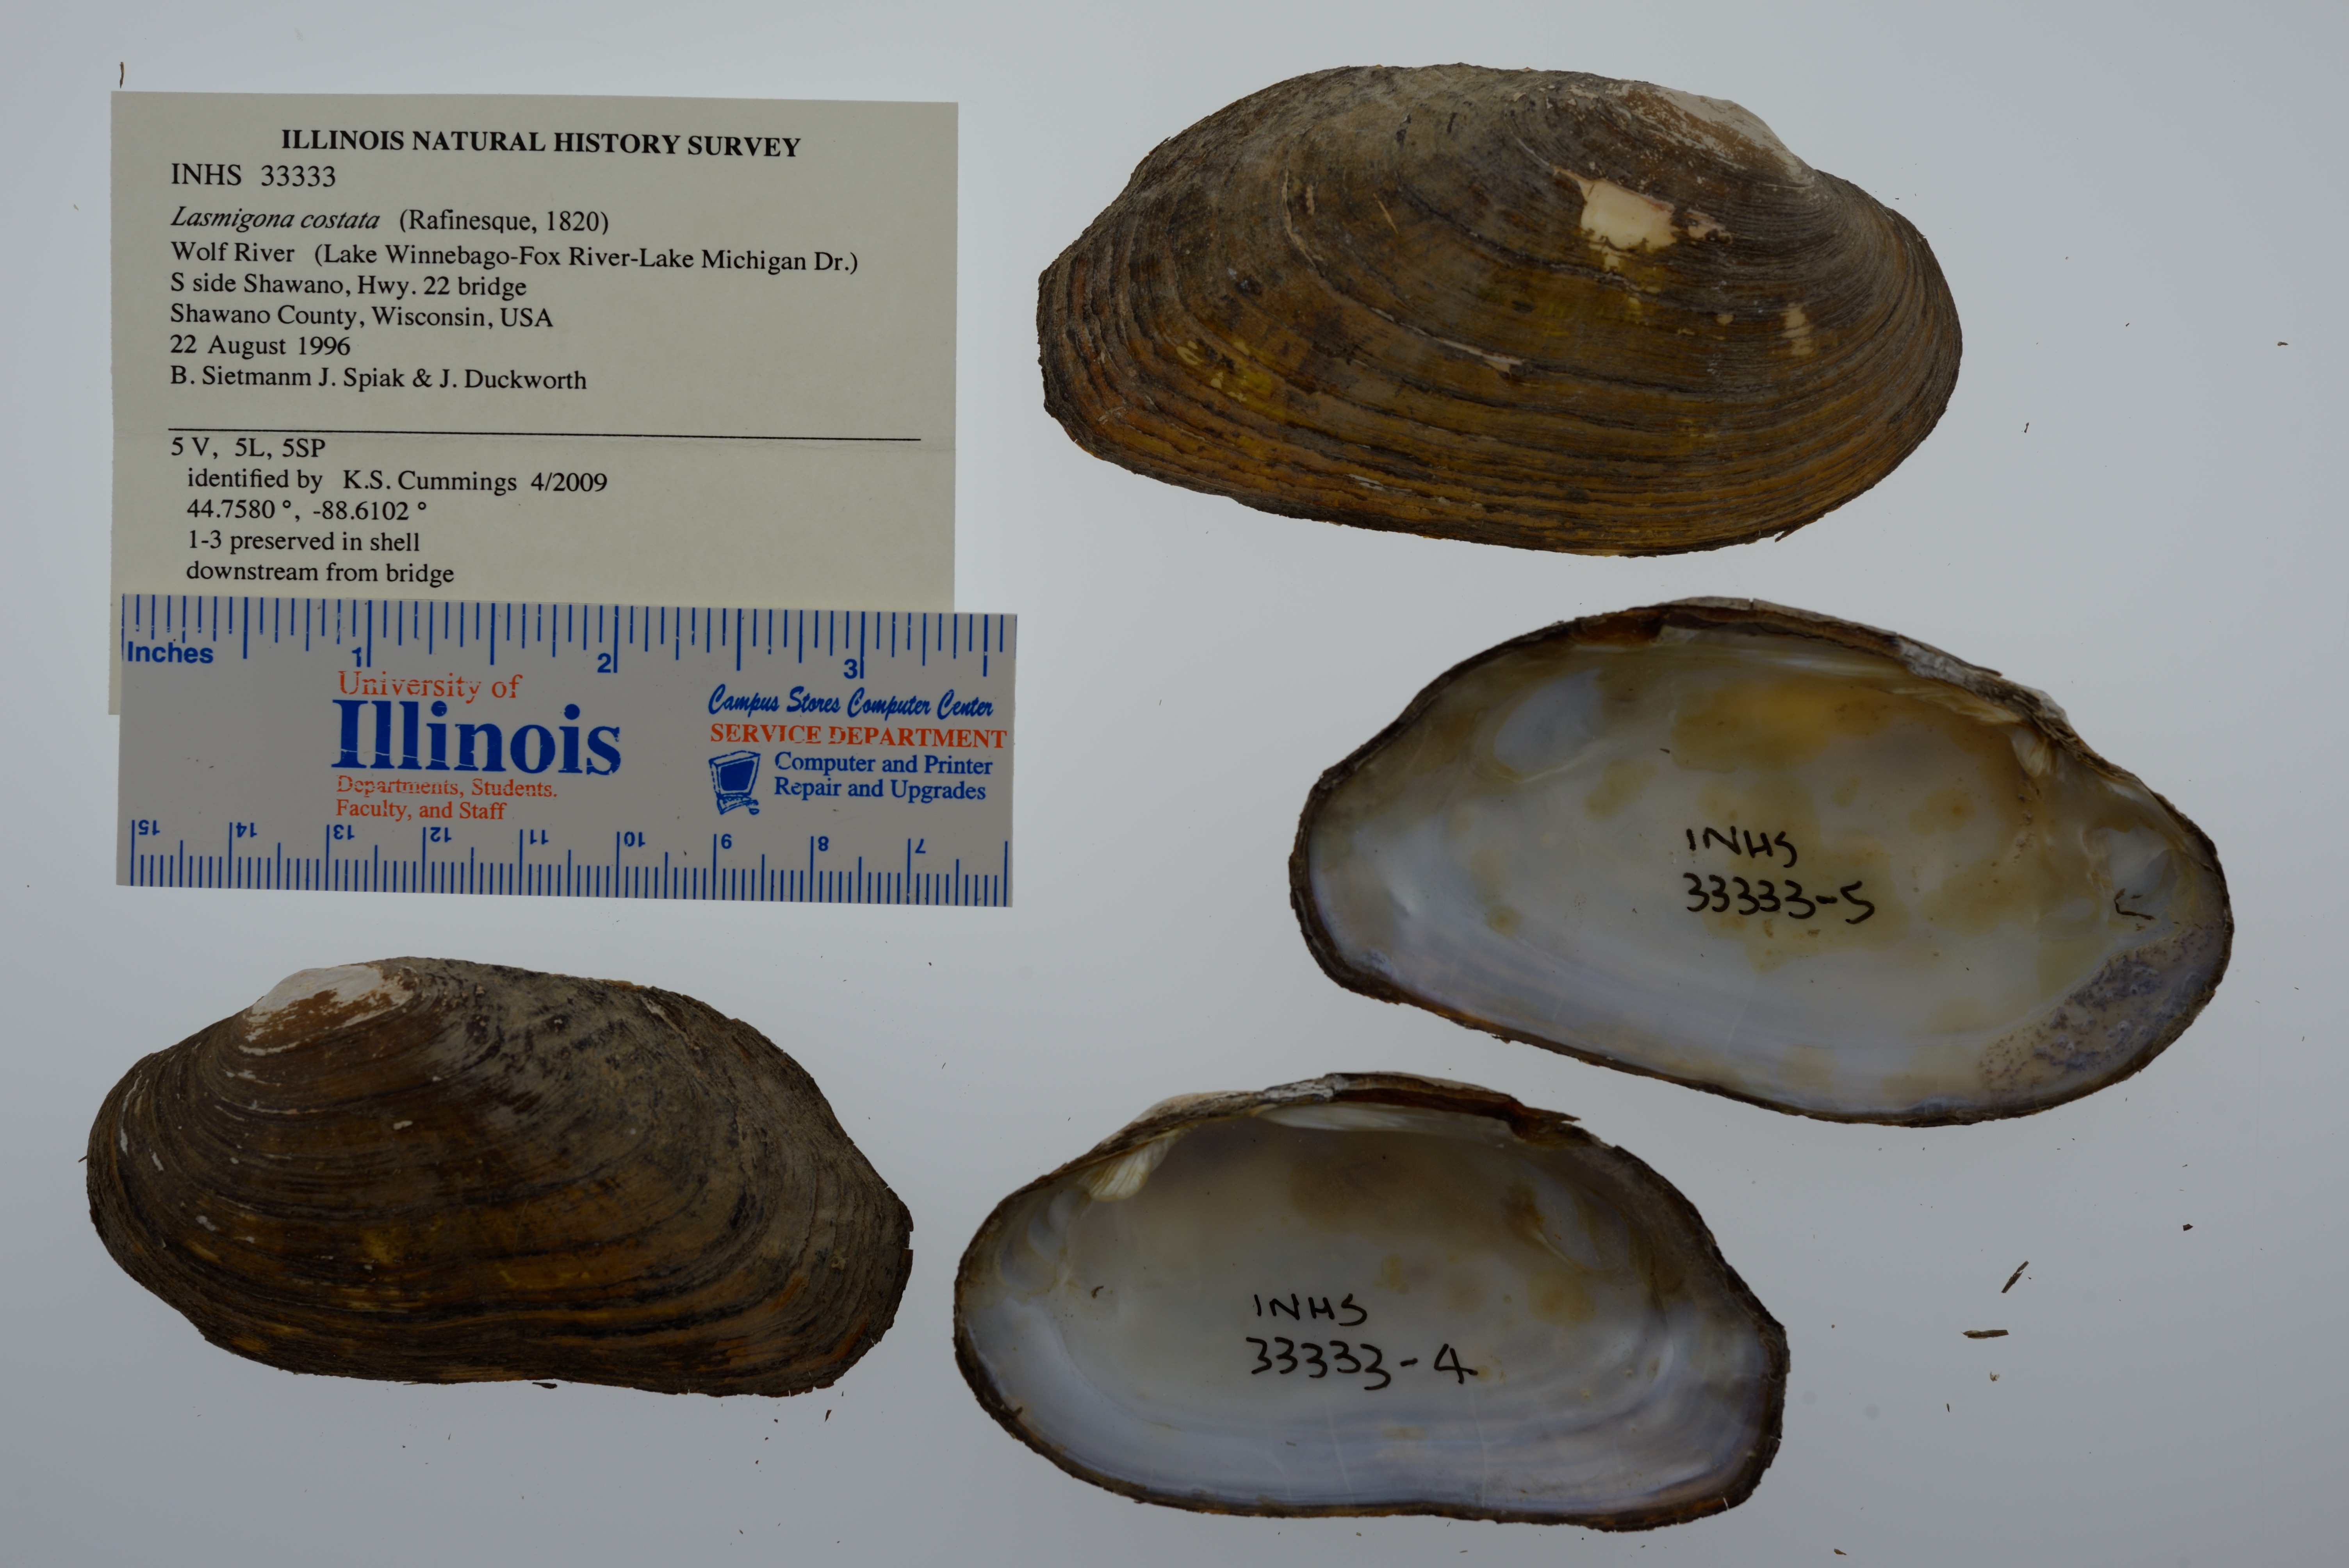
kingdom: Animalia
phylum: Mollusca
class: Bivalvia
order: Unionida
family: Unionidae
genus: Lasmigona
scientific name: Lasmigona costata
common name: Flutedshell
